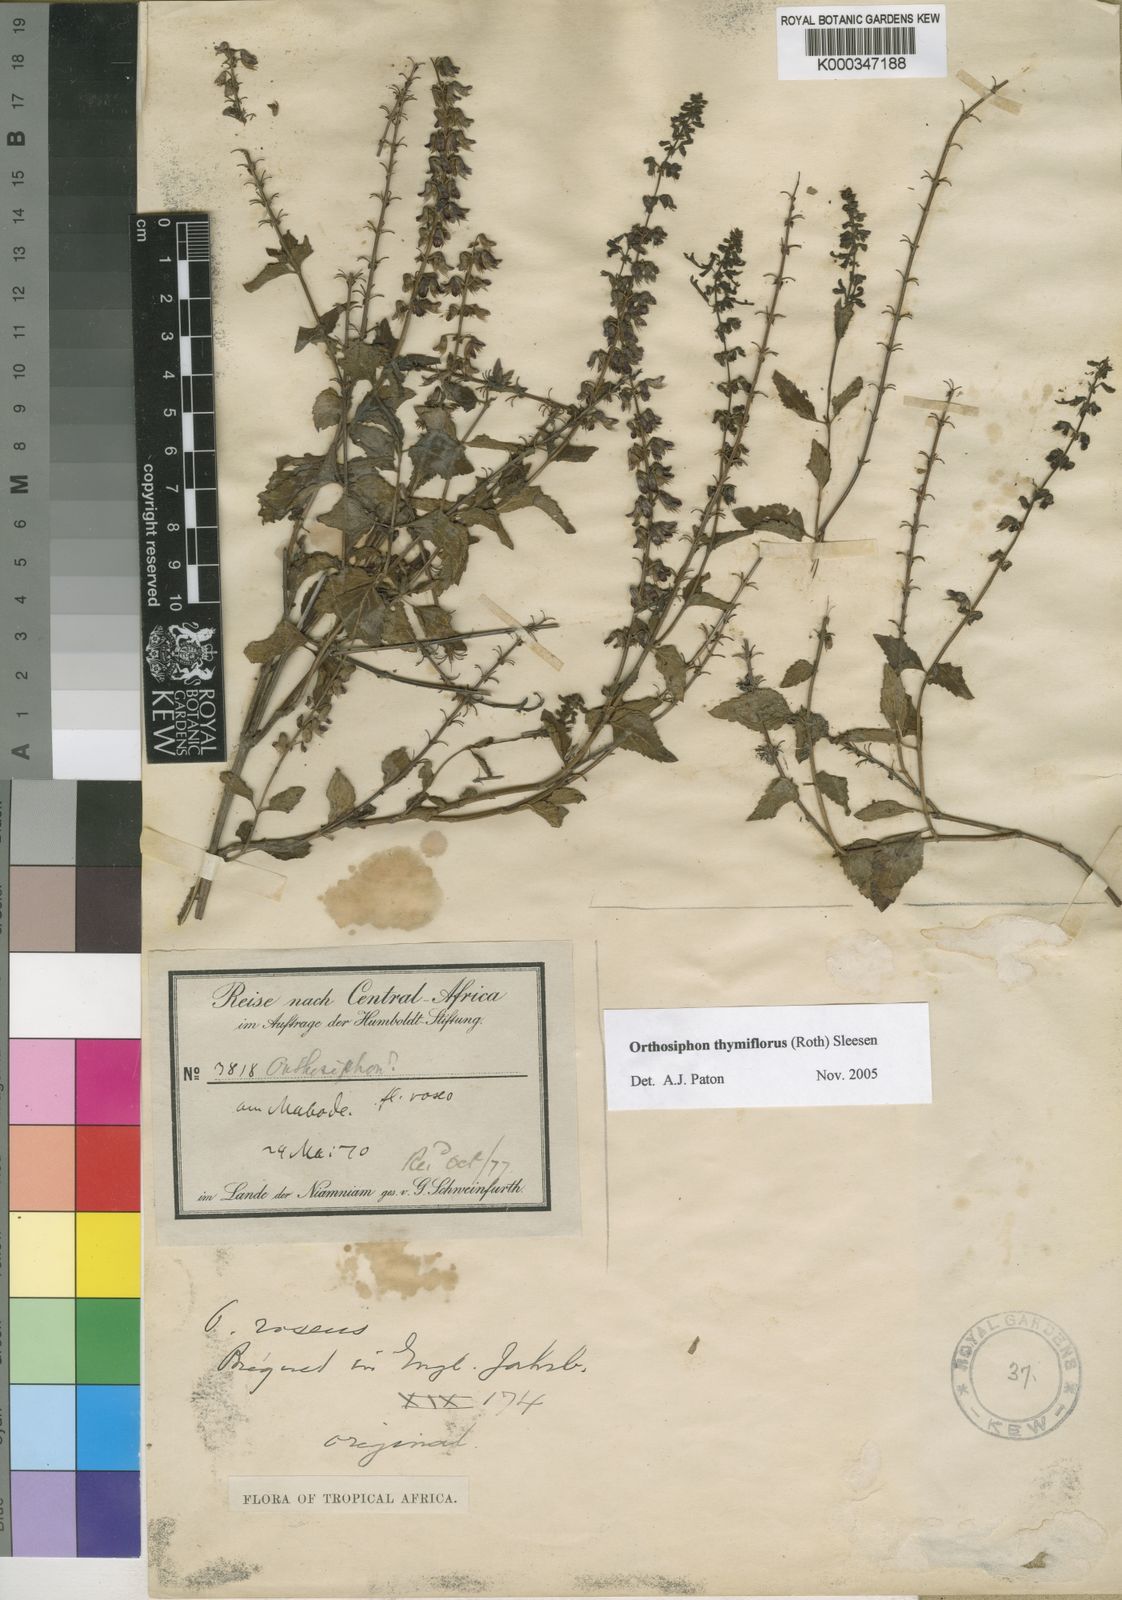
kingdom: Plantae
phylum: Tracheophyta
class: Magnoliopsida
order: Lamiales
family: Lamiaceae
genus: Orthosiphon
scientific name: Orthosiphon thymiflorus
